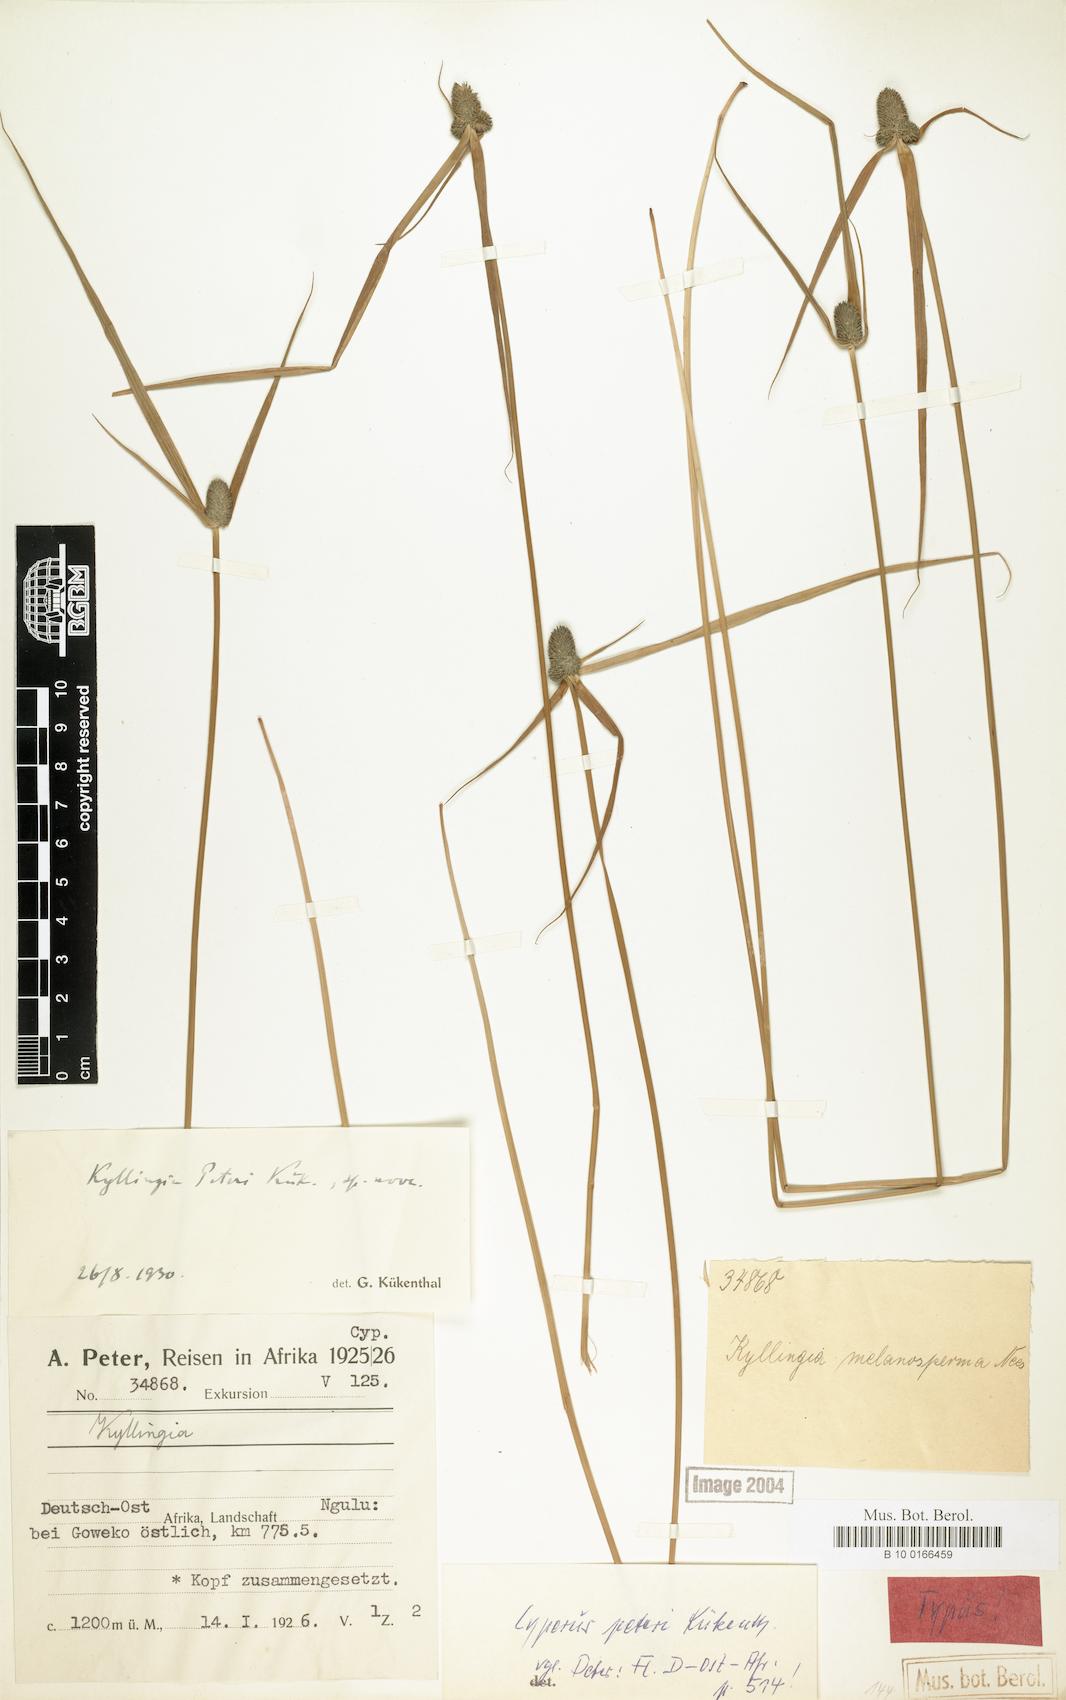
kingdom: Plantae
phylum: Tracheophyta
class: Liliopsida
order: Poales
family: Cyperaceae
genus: Cyperus
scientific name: Cyperus peteri
